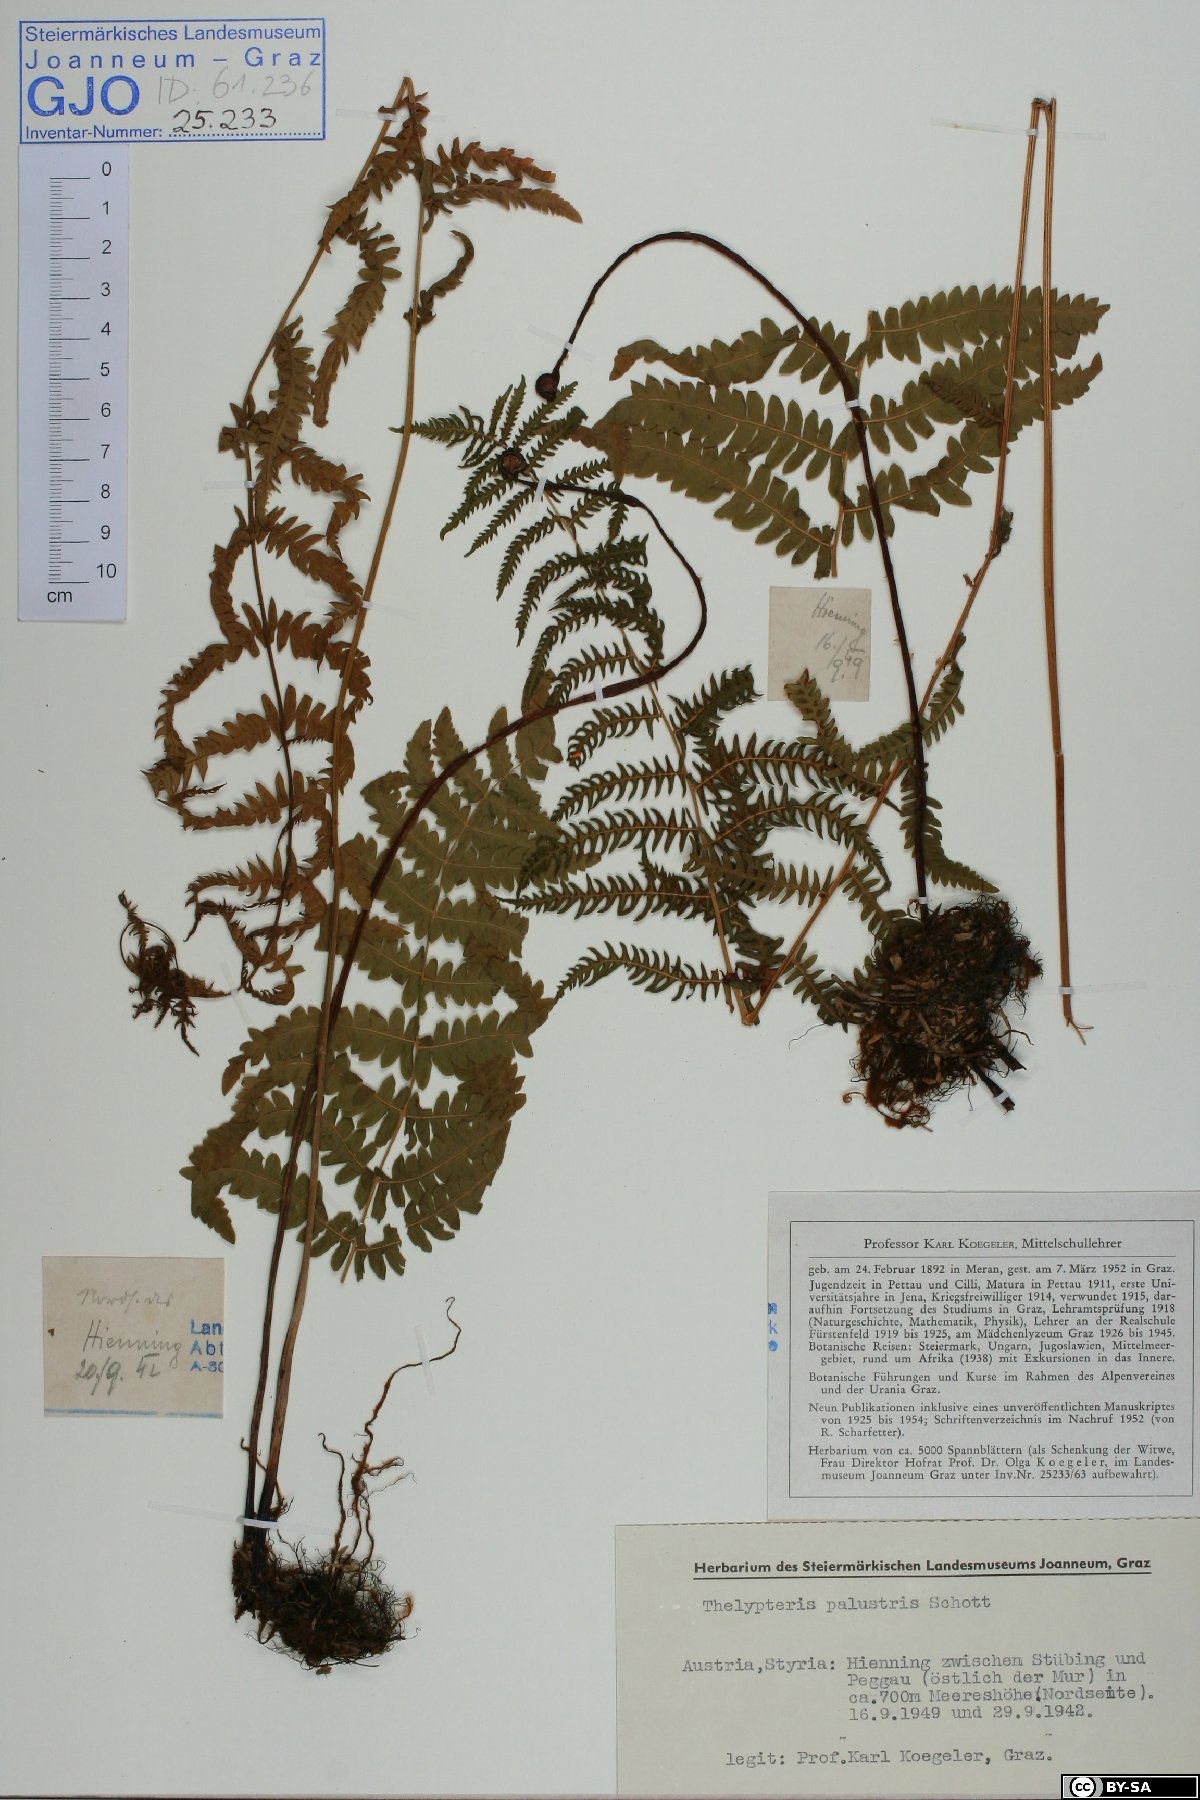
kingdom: Plantae
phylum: Tracheophyta
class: Polypodiopsida
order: Polypodiales
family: Thelypteridaceae
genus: Thelypteris
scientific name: Thelypteris palustris
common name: Marsh fern
